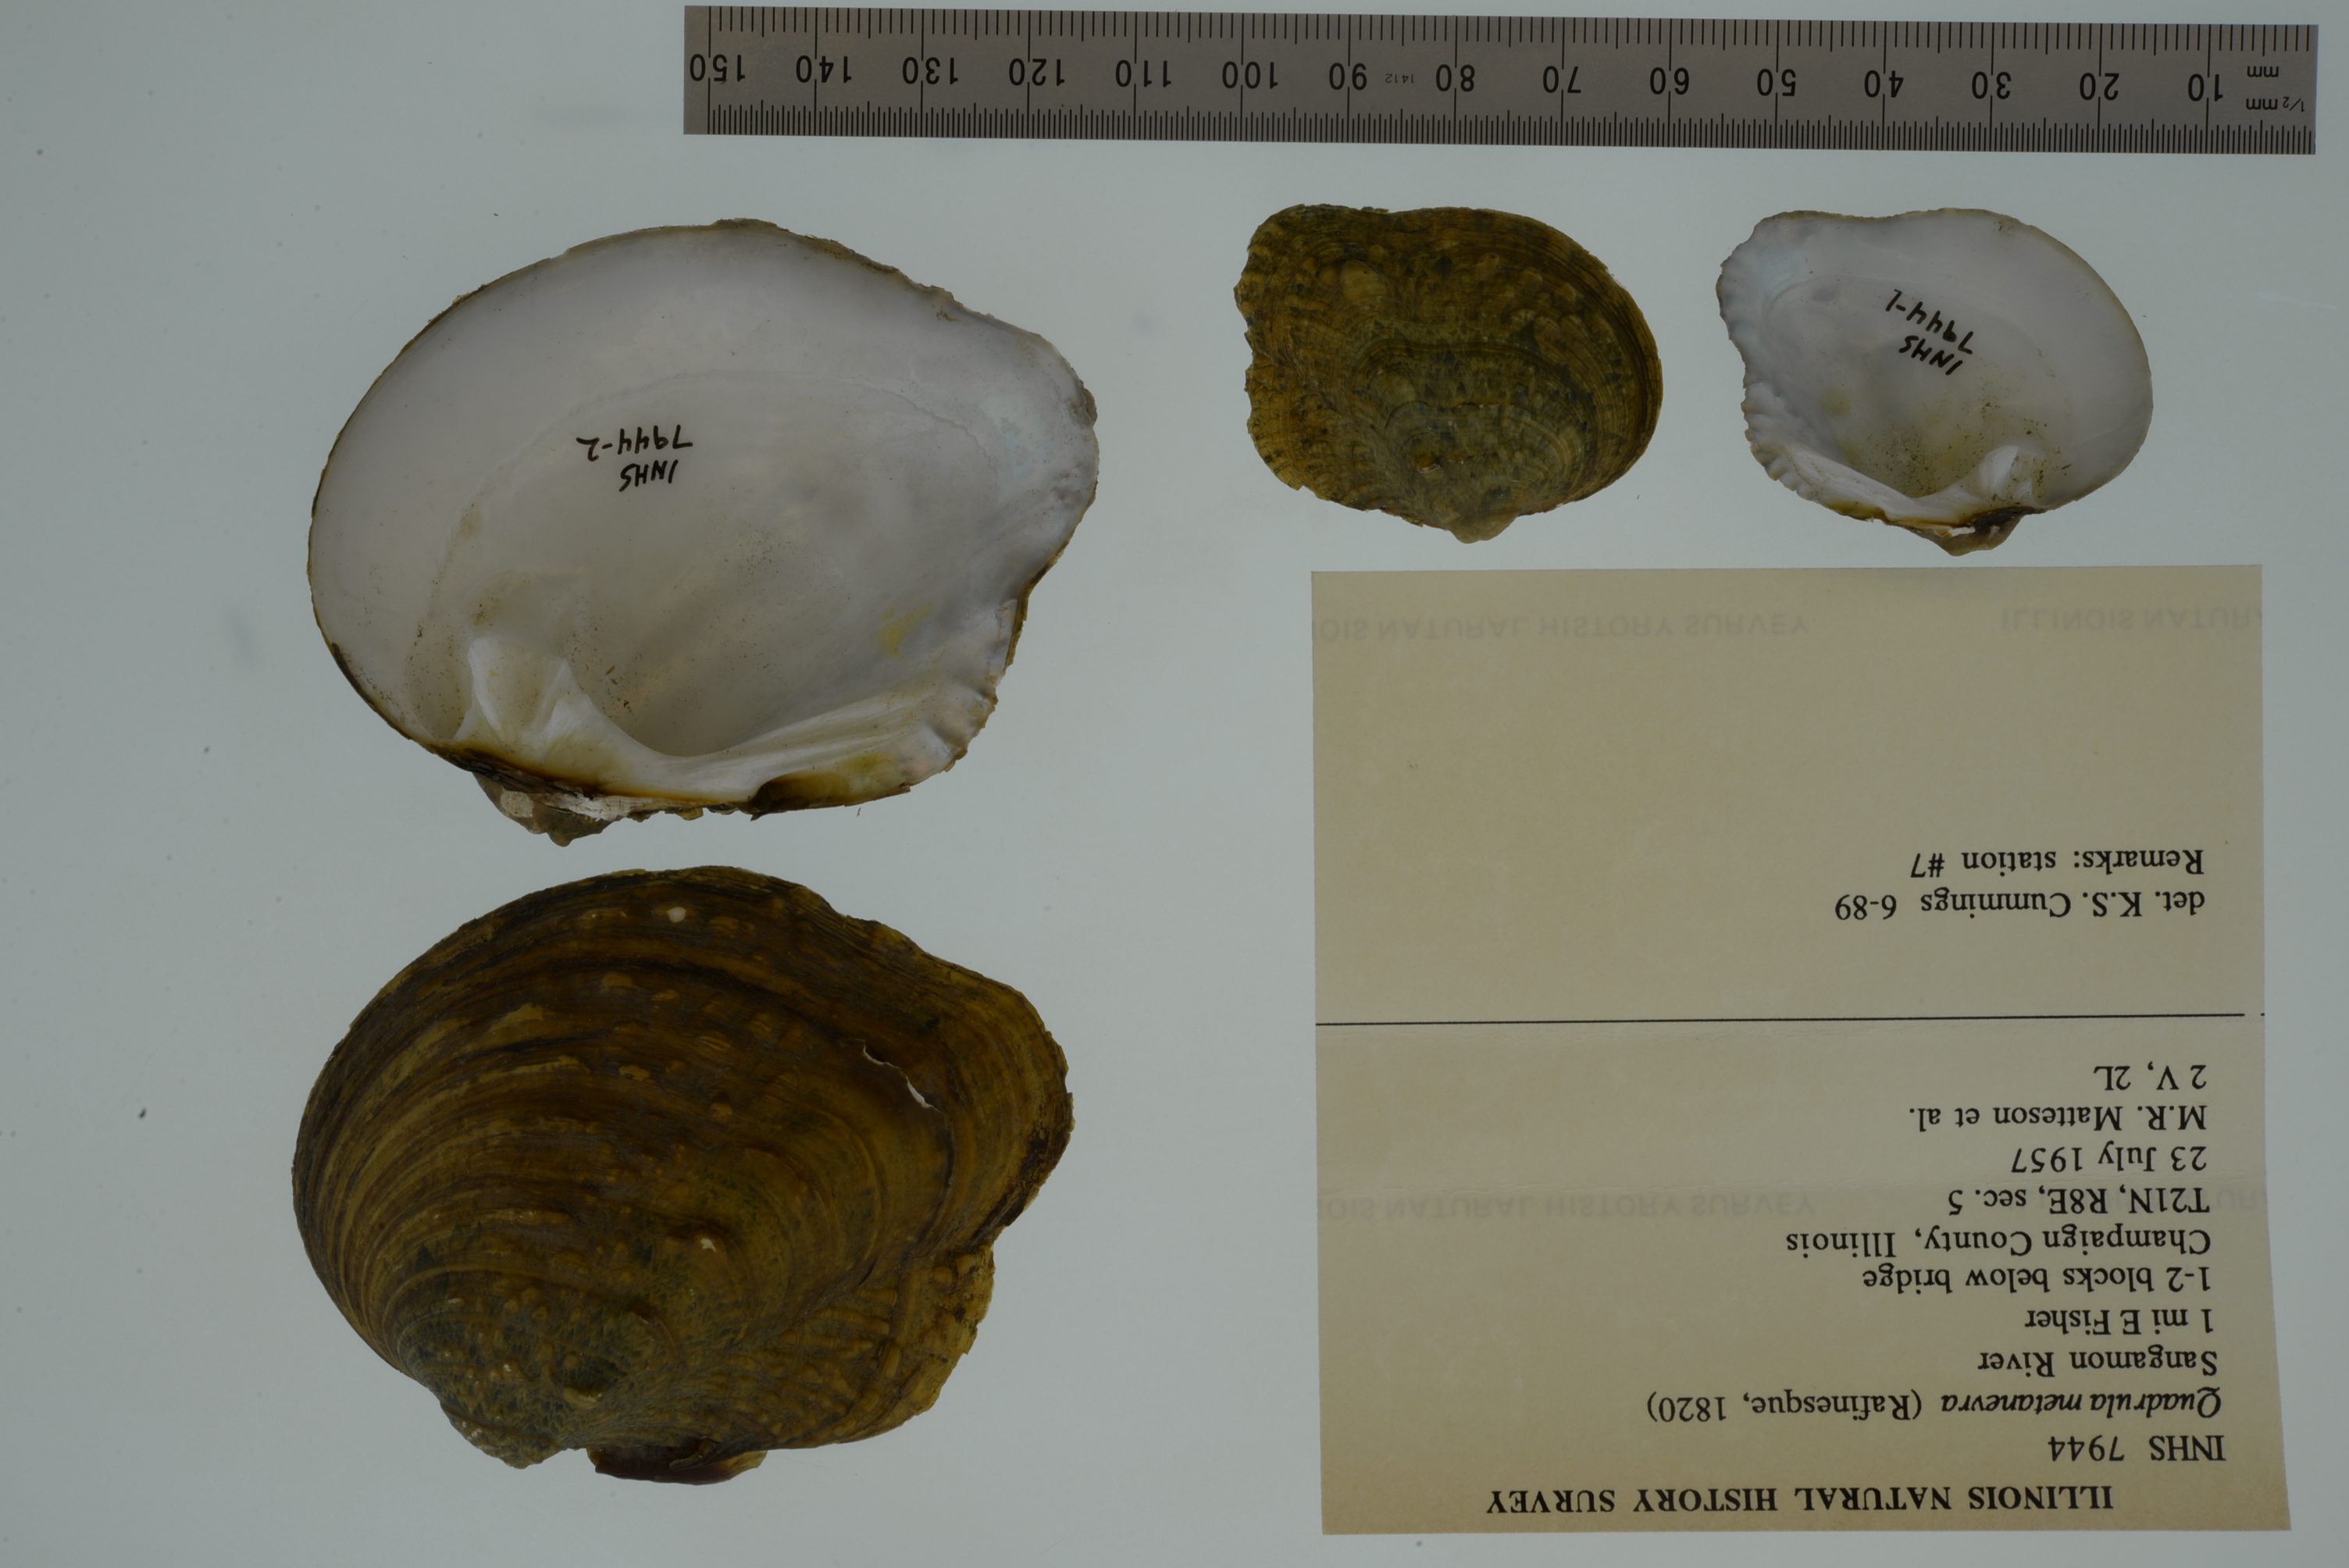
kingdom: Animalia
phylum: Mollusca
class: Bivalvia
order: Unionida
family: Unionidae
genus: Theliderma
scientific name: Theliderma metanevra
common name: Monkeyface
